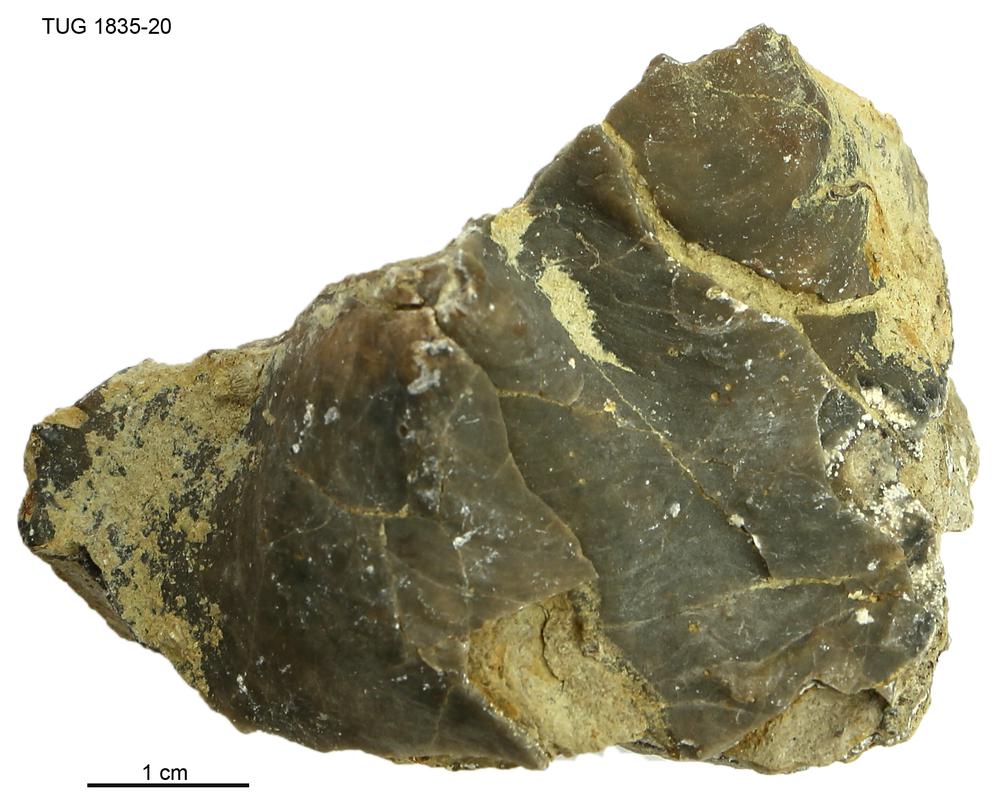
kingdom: Animalia
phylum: Porifera
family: Stromatoporidae
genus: Stromatopora
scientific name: Stromatopora
